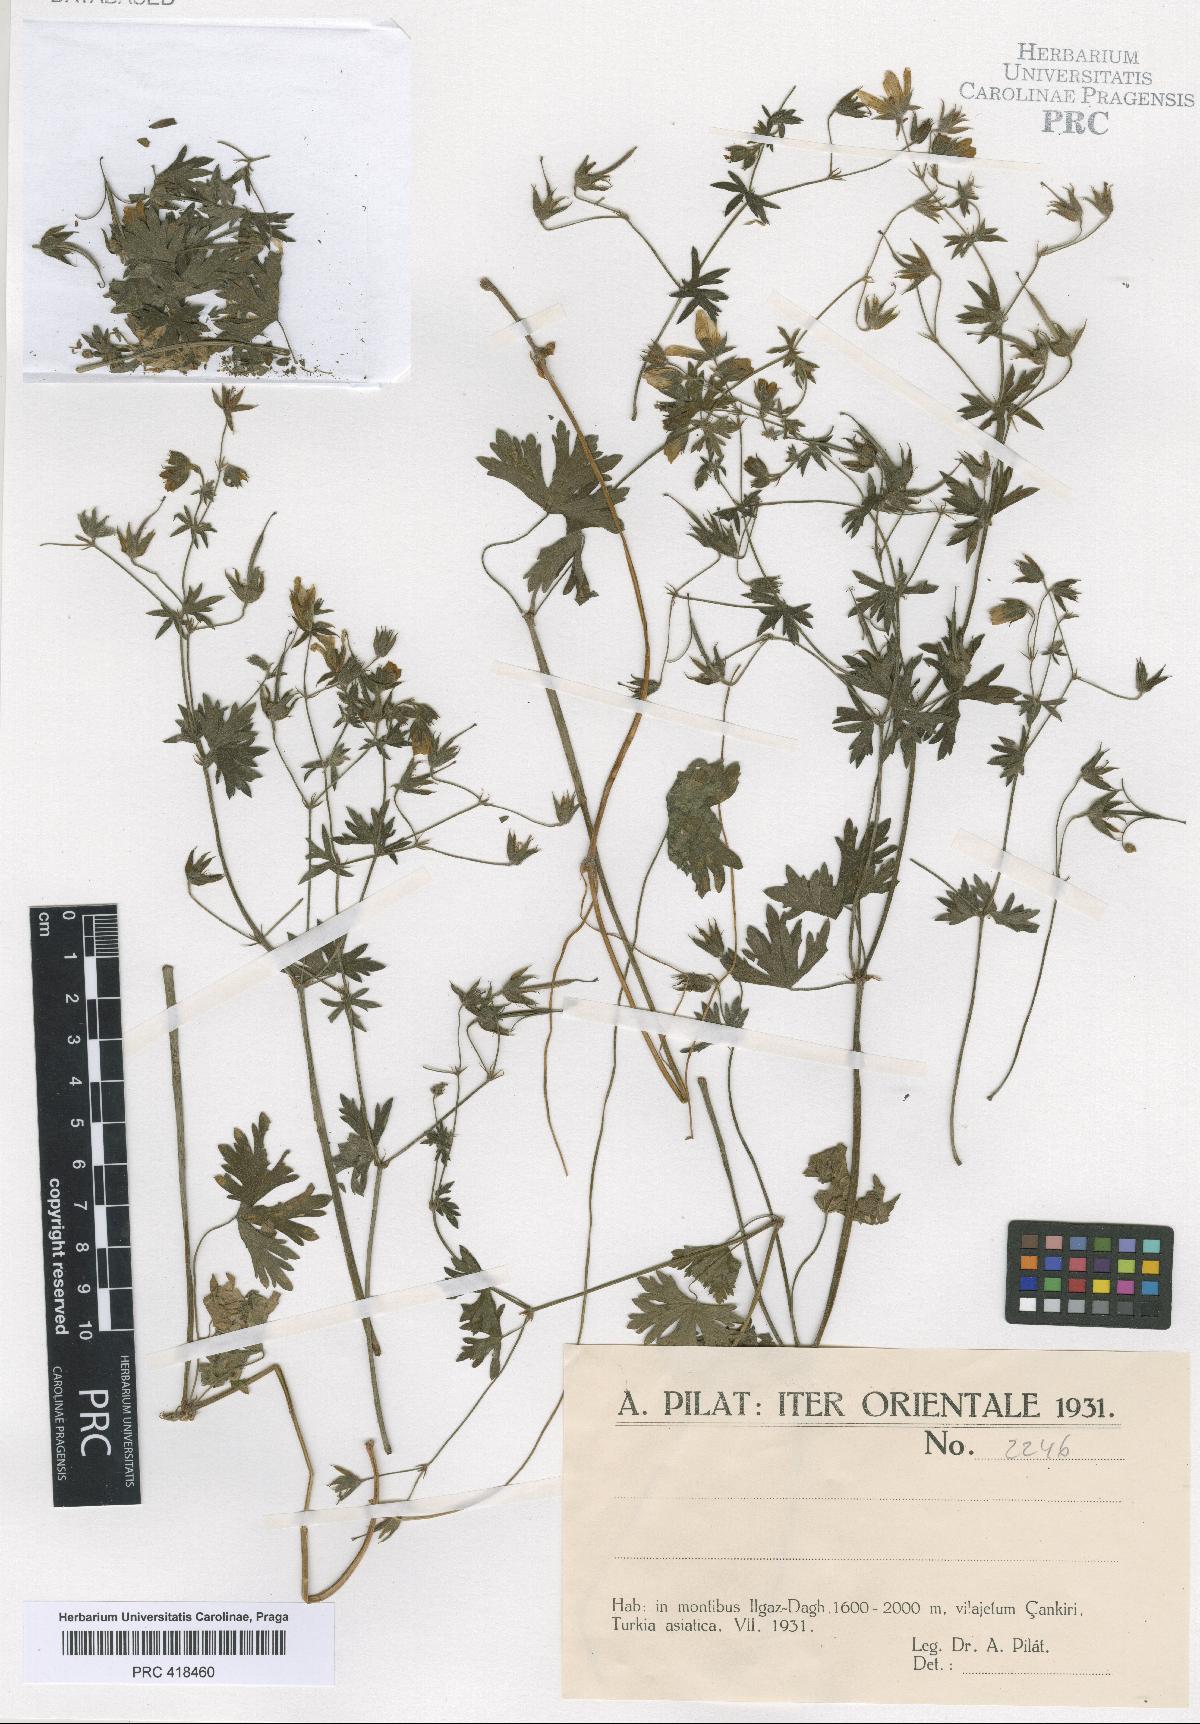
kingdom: Plantae
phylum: Tracheophyta
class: Magnoliopsida
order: Geraniales
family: Geraniaceae
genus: Geranium
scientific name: Geranium asphodeloides
